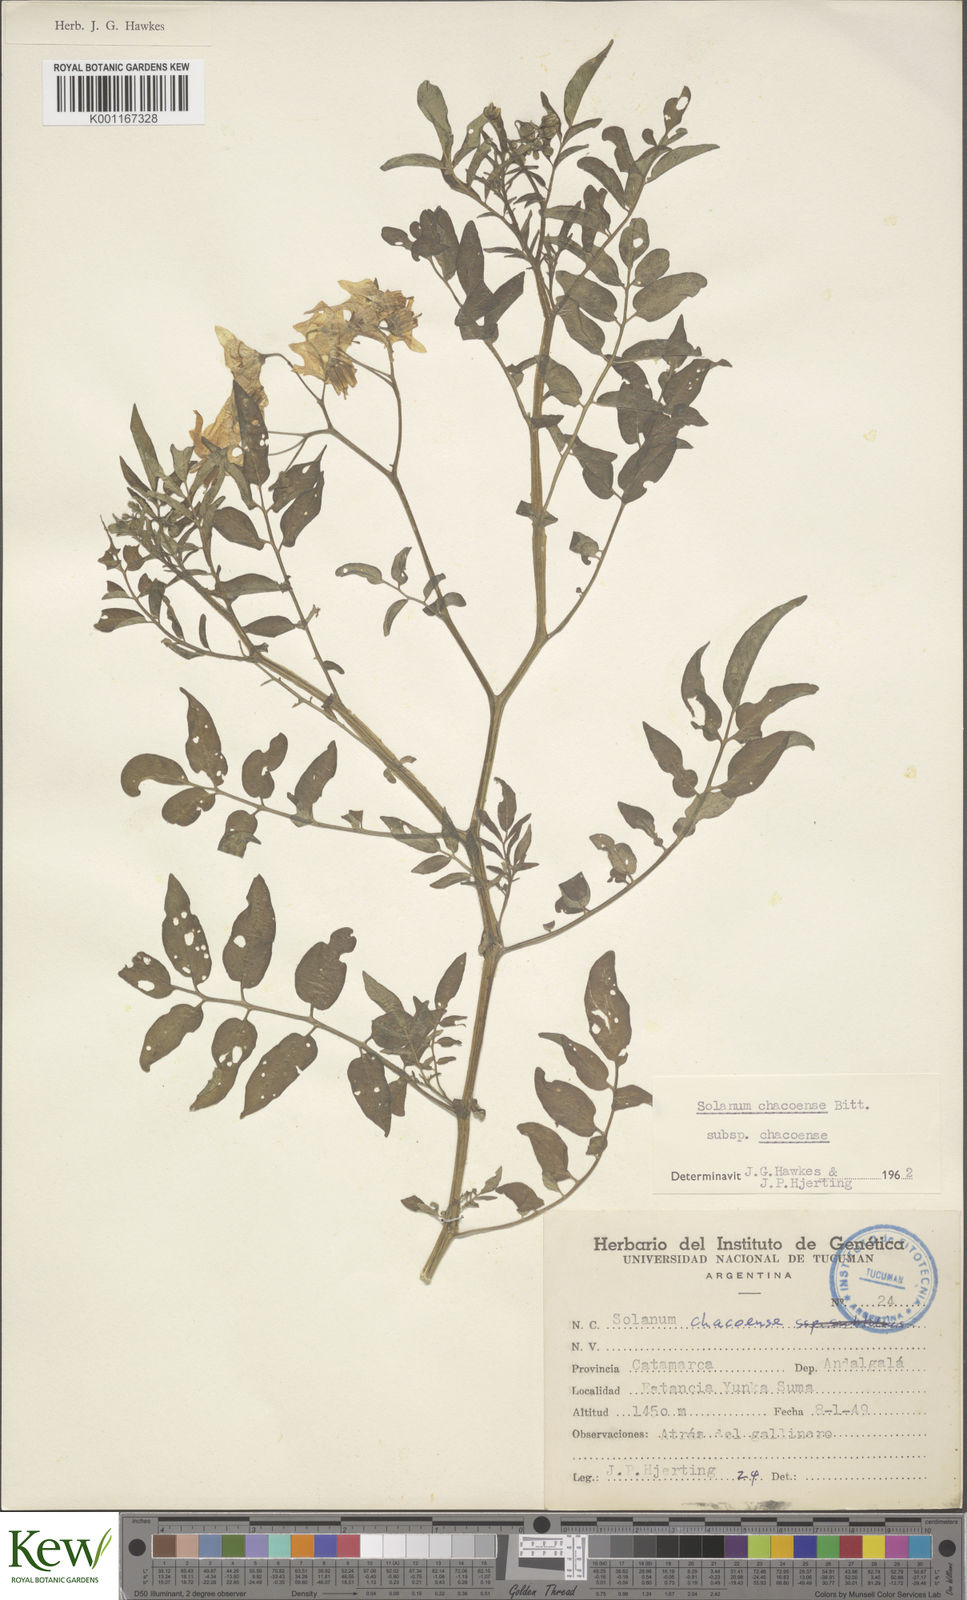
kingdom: Plantae
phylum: Tracheophyta
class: Magnoliopsida
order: Solanales
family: Solanaceae
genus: Solanum
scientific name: Solanum chacoense
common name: Chaco potato
